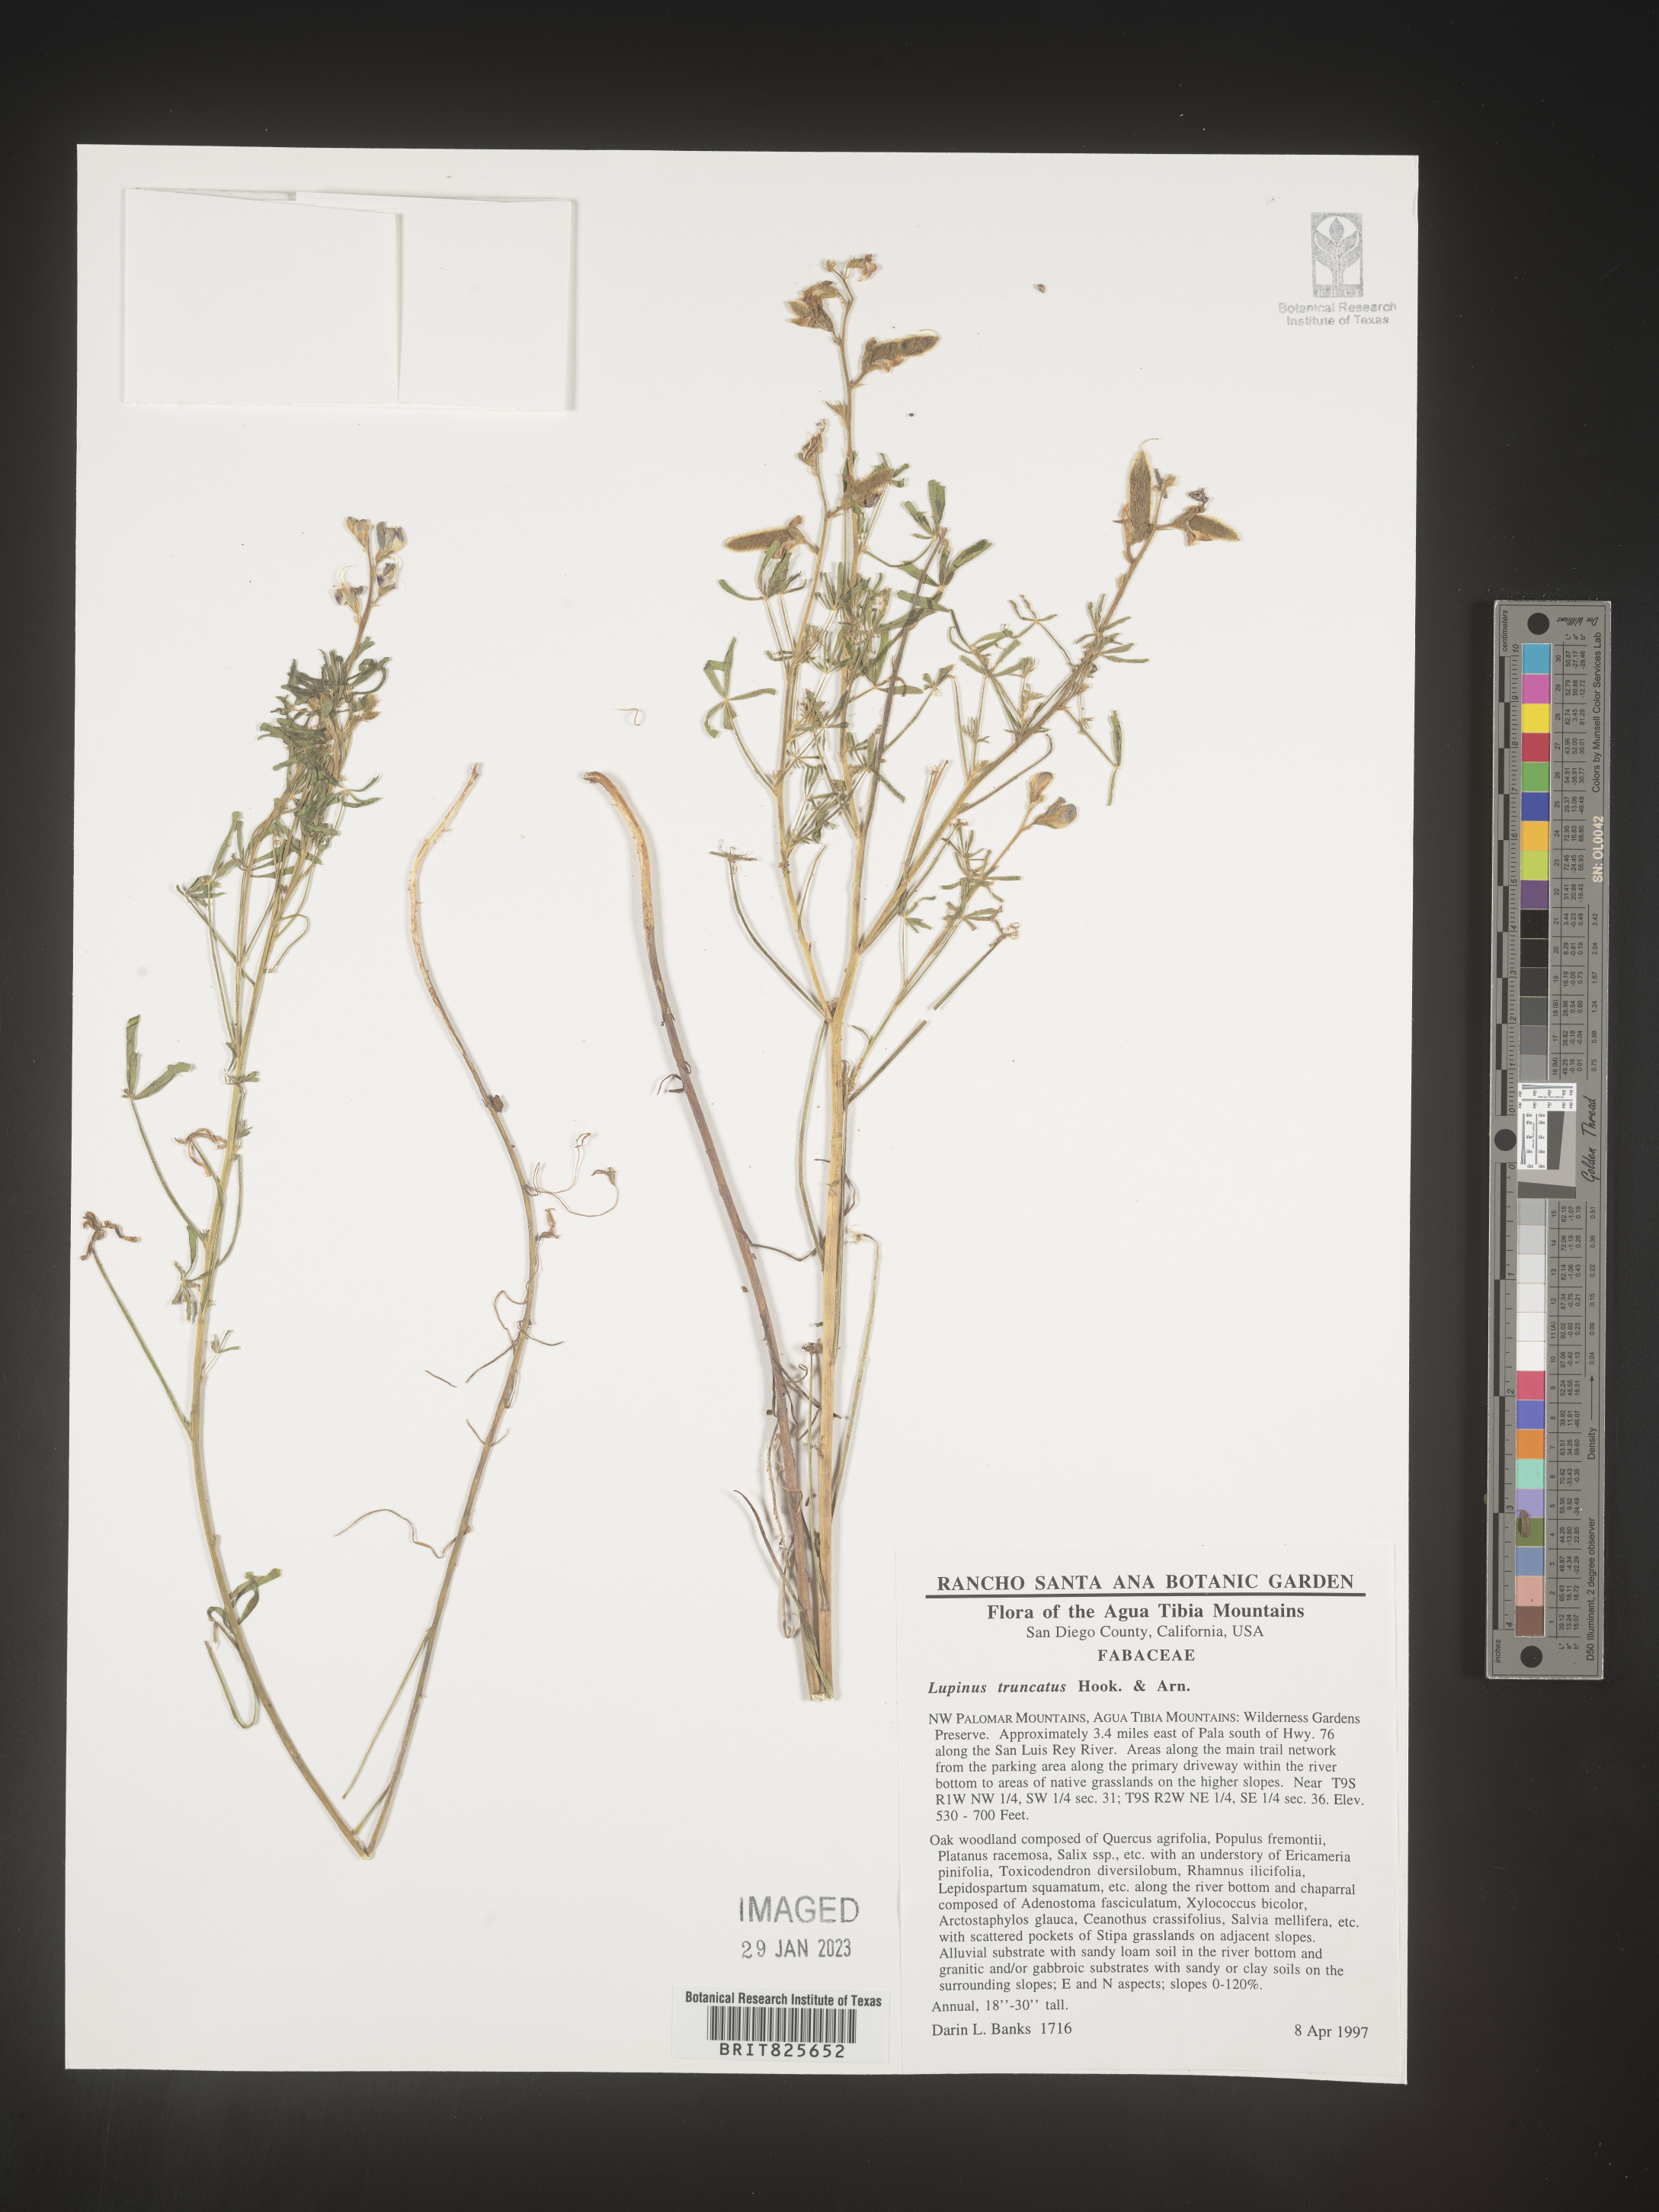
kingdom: Plantae
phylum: Tracheophyta
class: Magnoliopsida
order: Fabales
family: Fabaceae
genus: Lupinus
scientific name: Lupinus
